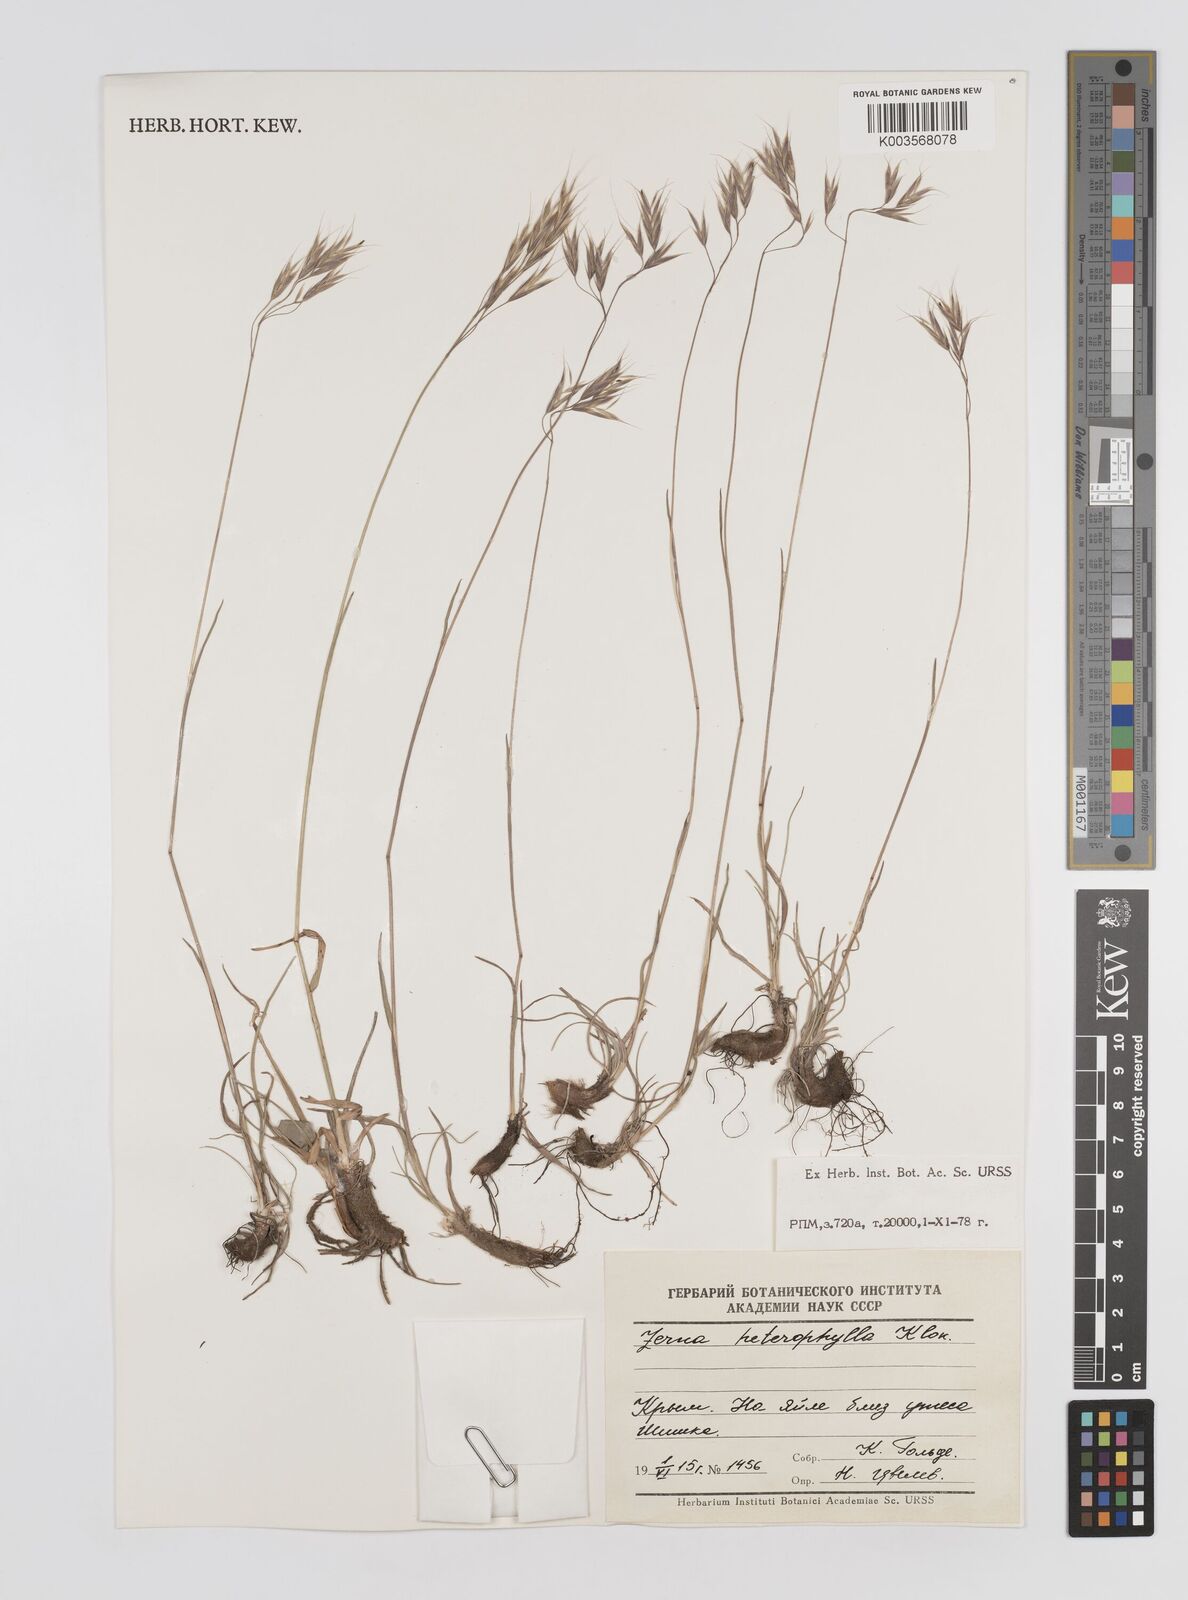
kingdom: Plantae
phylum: Tracheophyta
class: Liliopsida
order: Poales
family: Poaceae
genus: Bromus
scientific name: Bromus riparius
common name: Meadow brome
